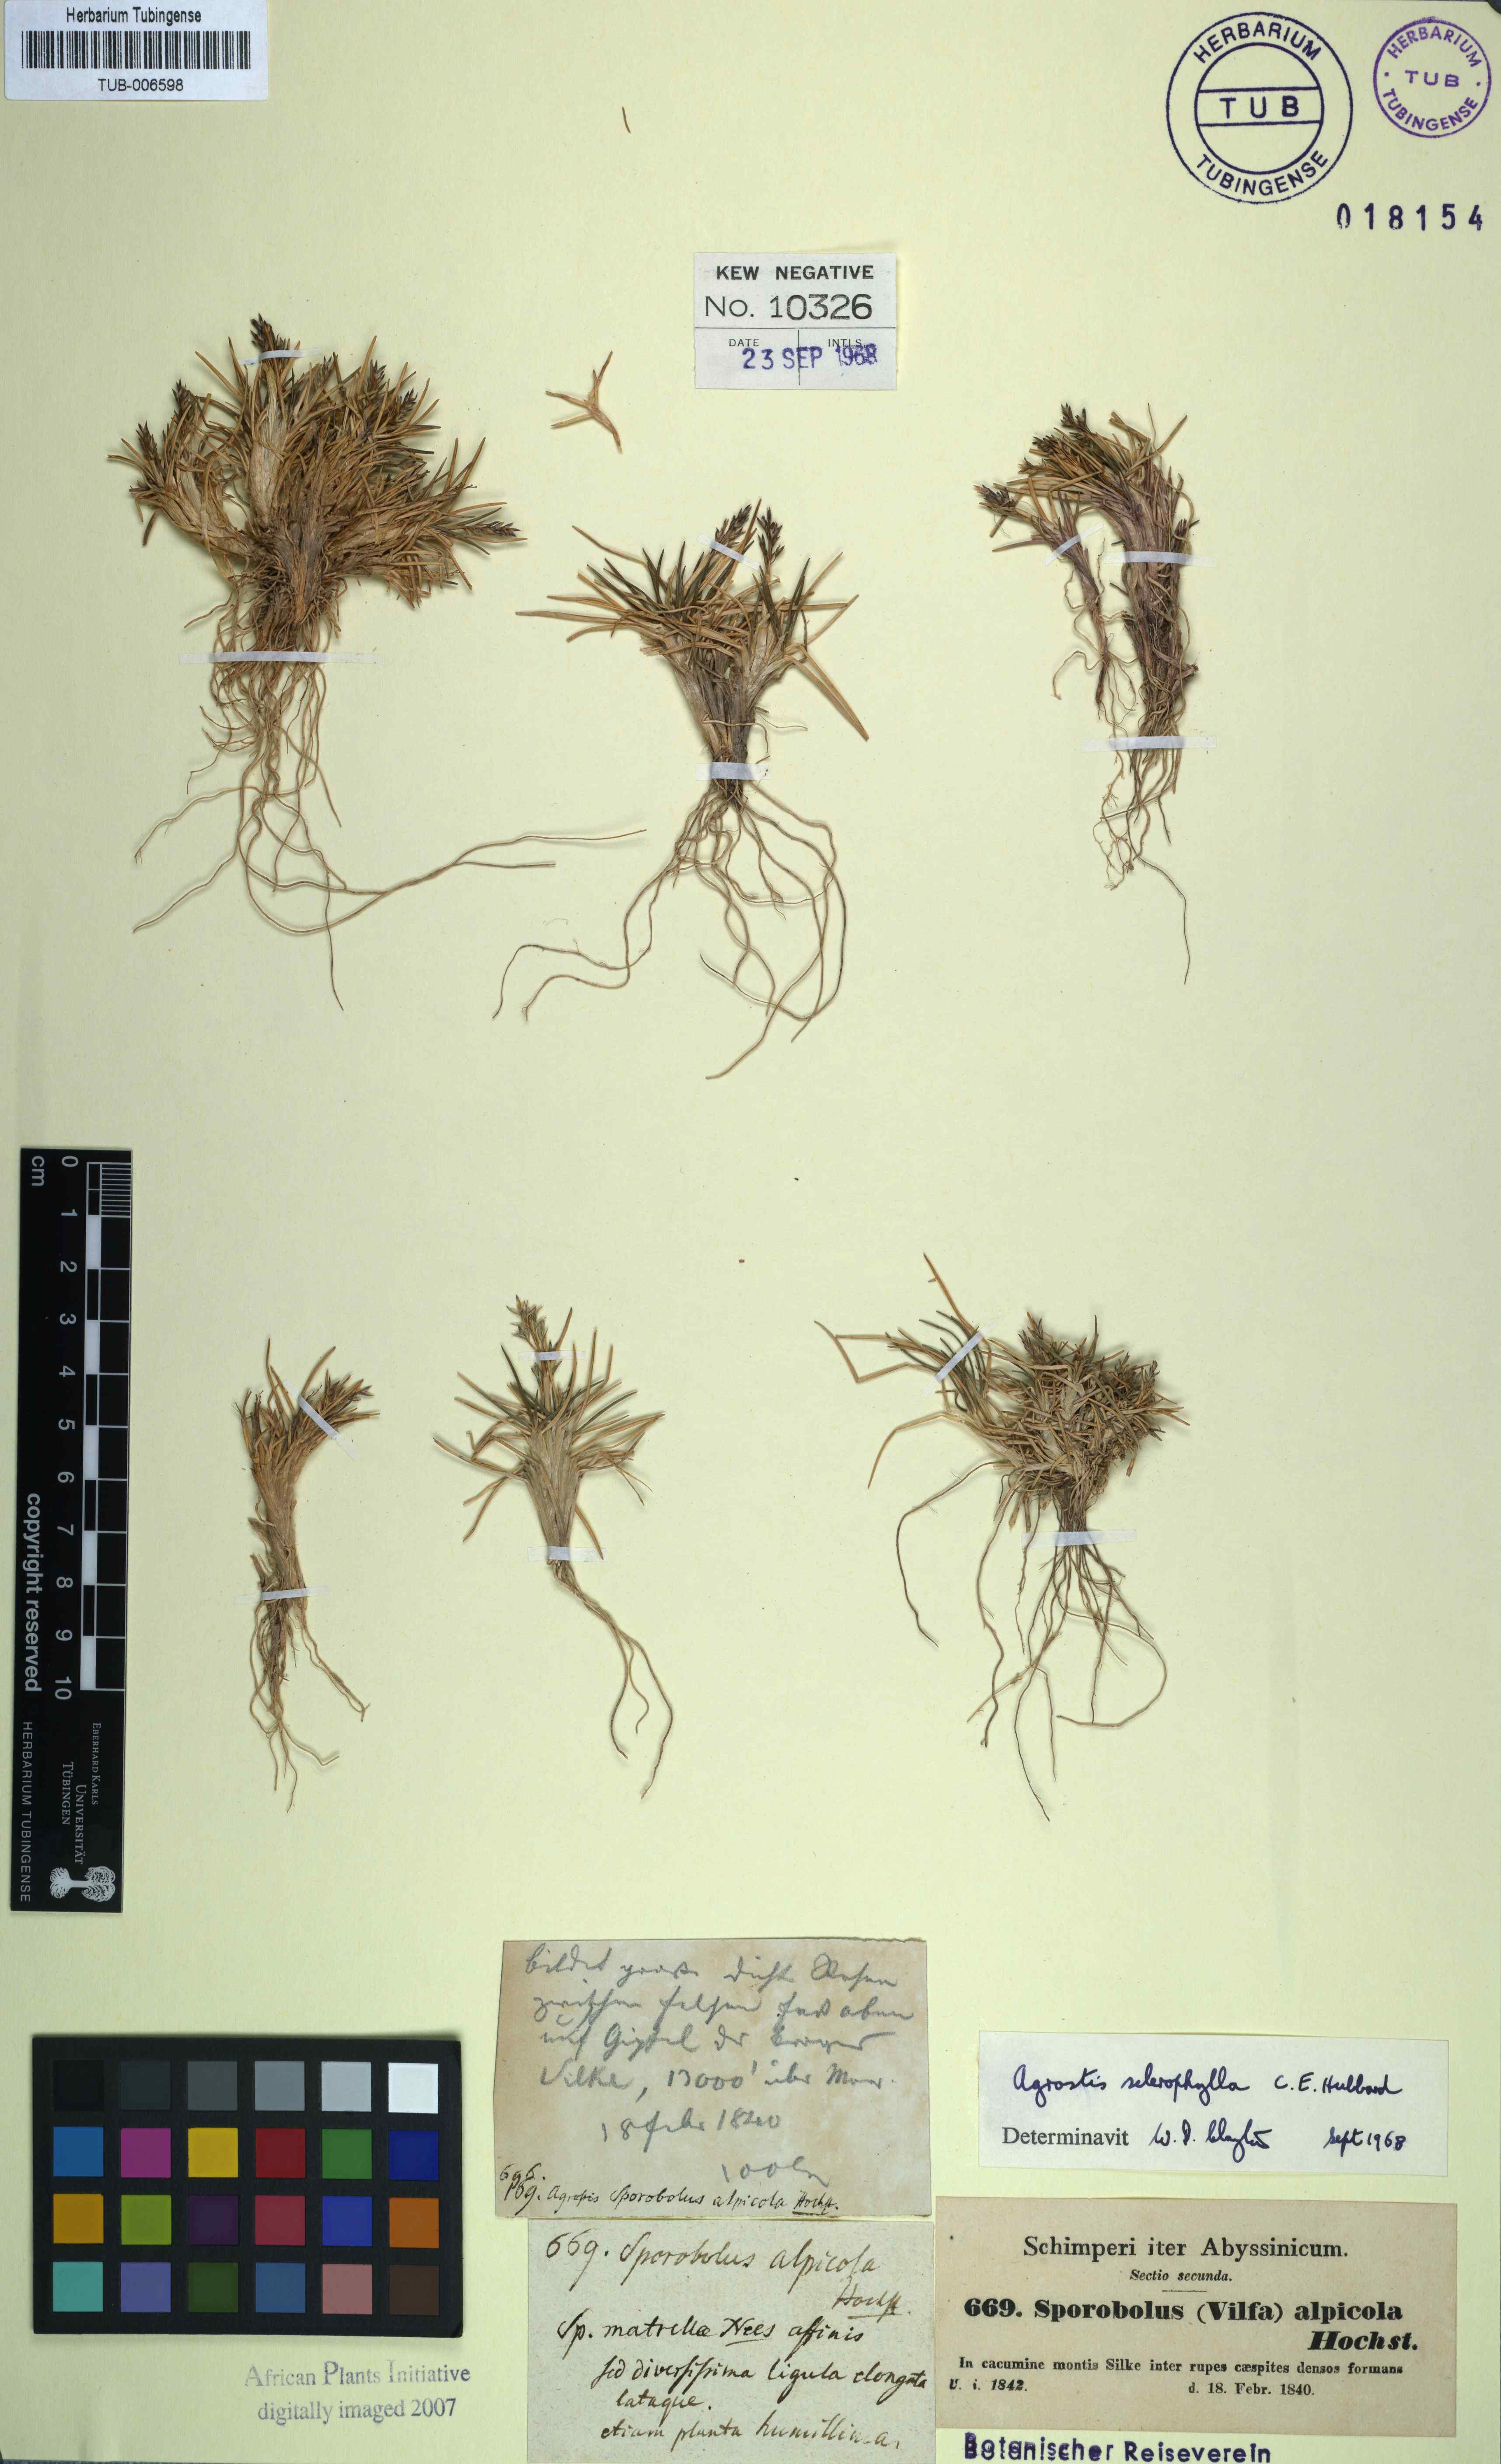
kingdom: Plantae
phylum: Tracheophyta
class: Liliopsida
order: Poales
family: Poaceae
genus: Agrostis
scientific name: Agrostis sclerophylla
